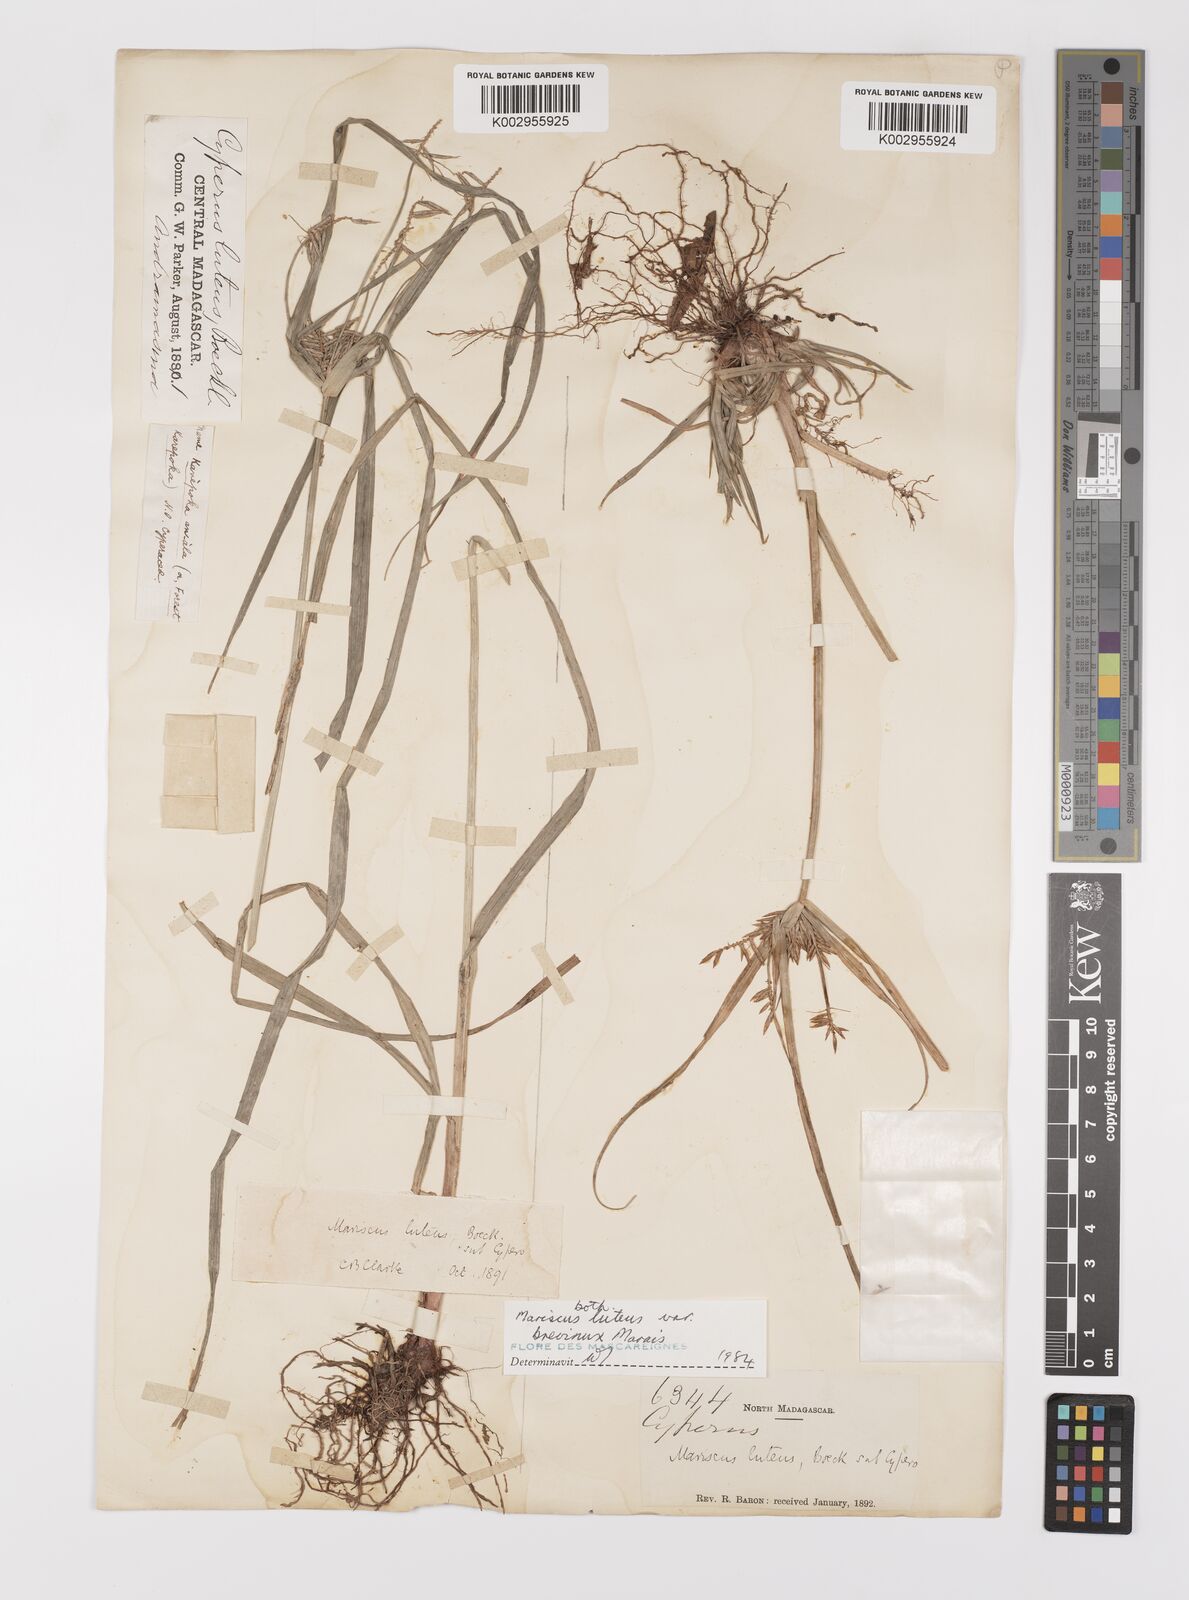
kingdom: Plantae
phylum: Tracheophyta
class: Liliopsida
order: Poales
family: Cyperaceae
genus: Cyperus
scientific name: Cyperus luteus
